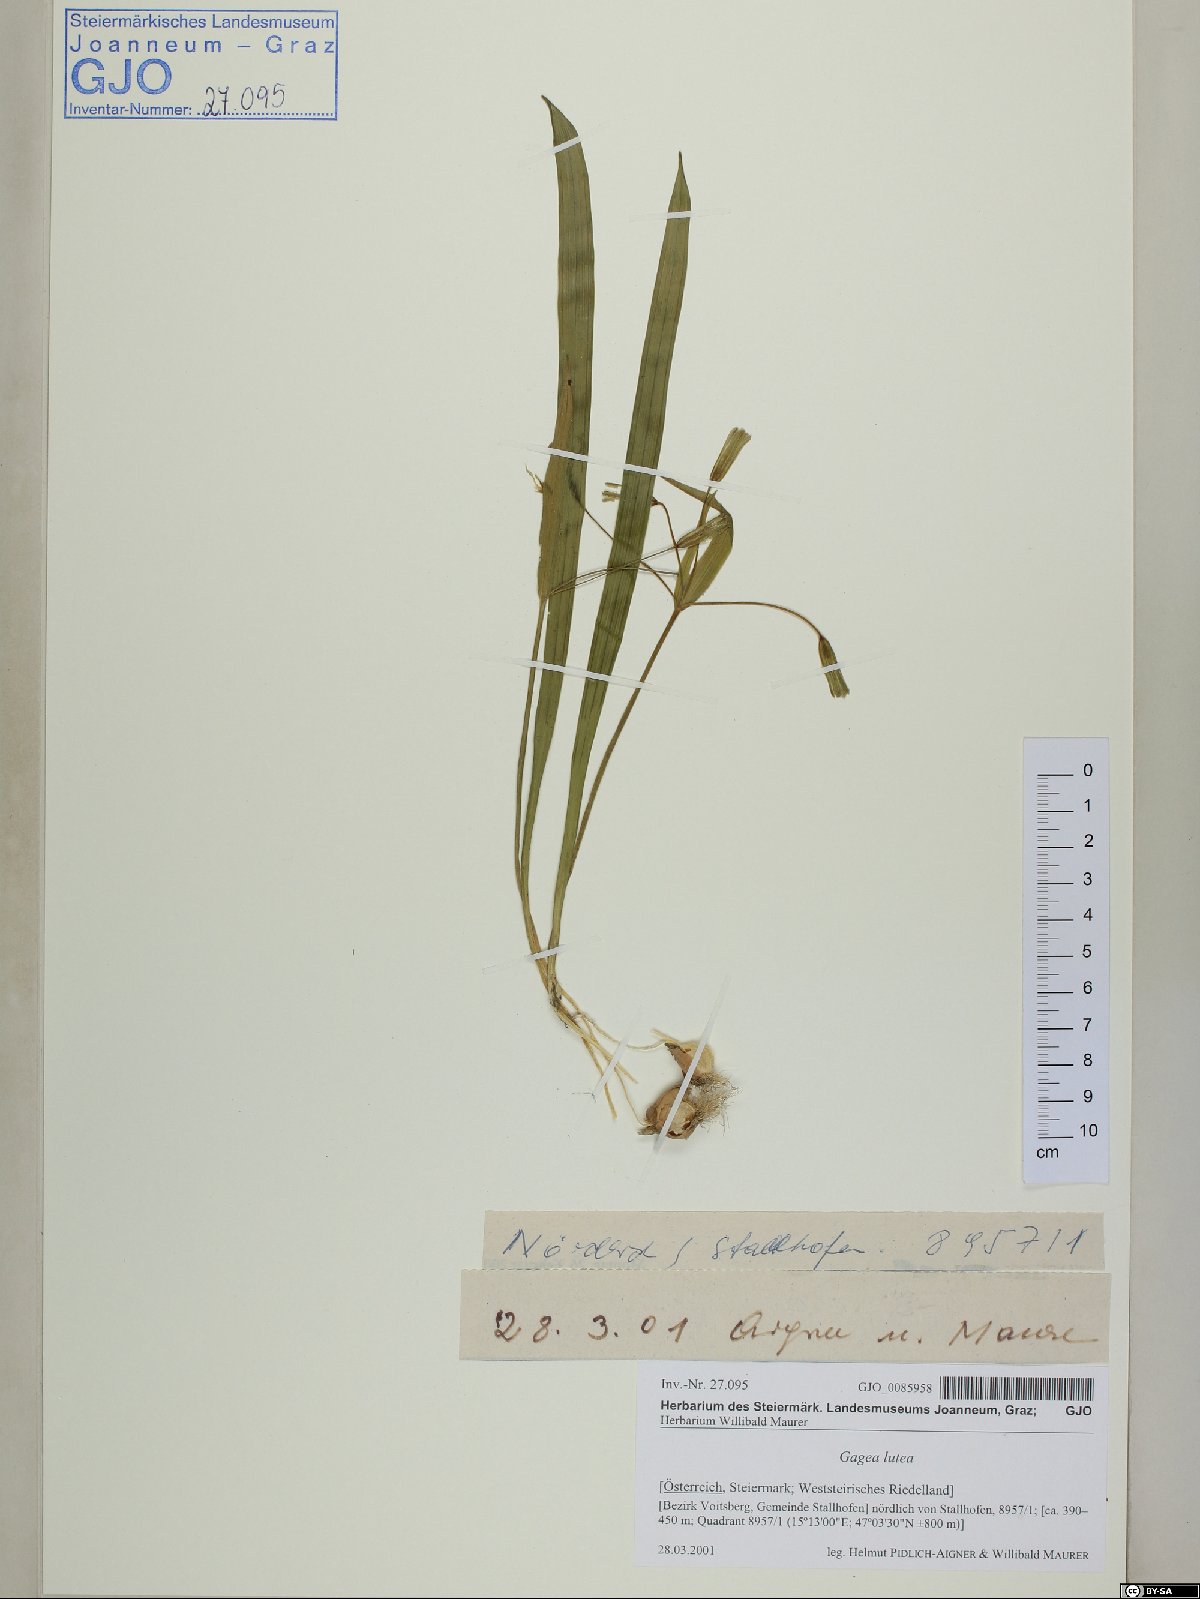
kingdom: Plantae
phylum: Tracheophyta
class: Liliopsida
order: Liliales
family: Liliaceae
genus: Gagea
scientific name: Gagea lutea
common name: Yellow star-of-bethlehem
